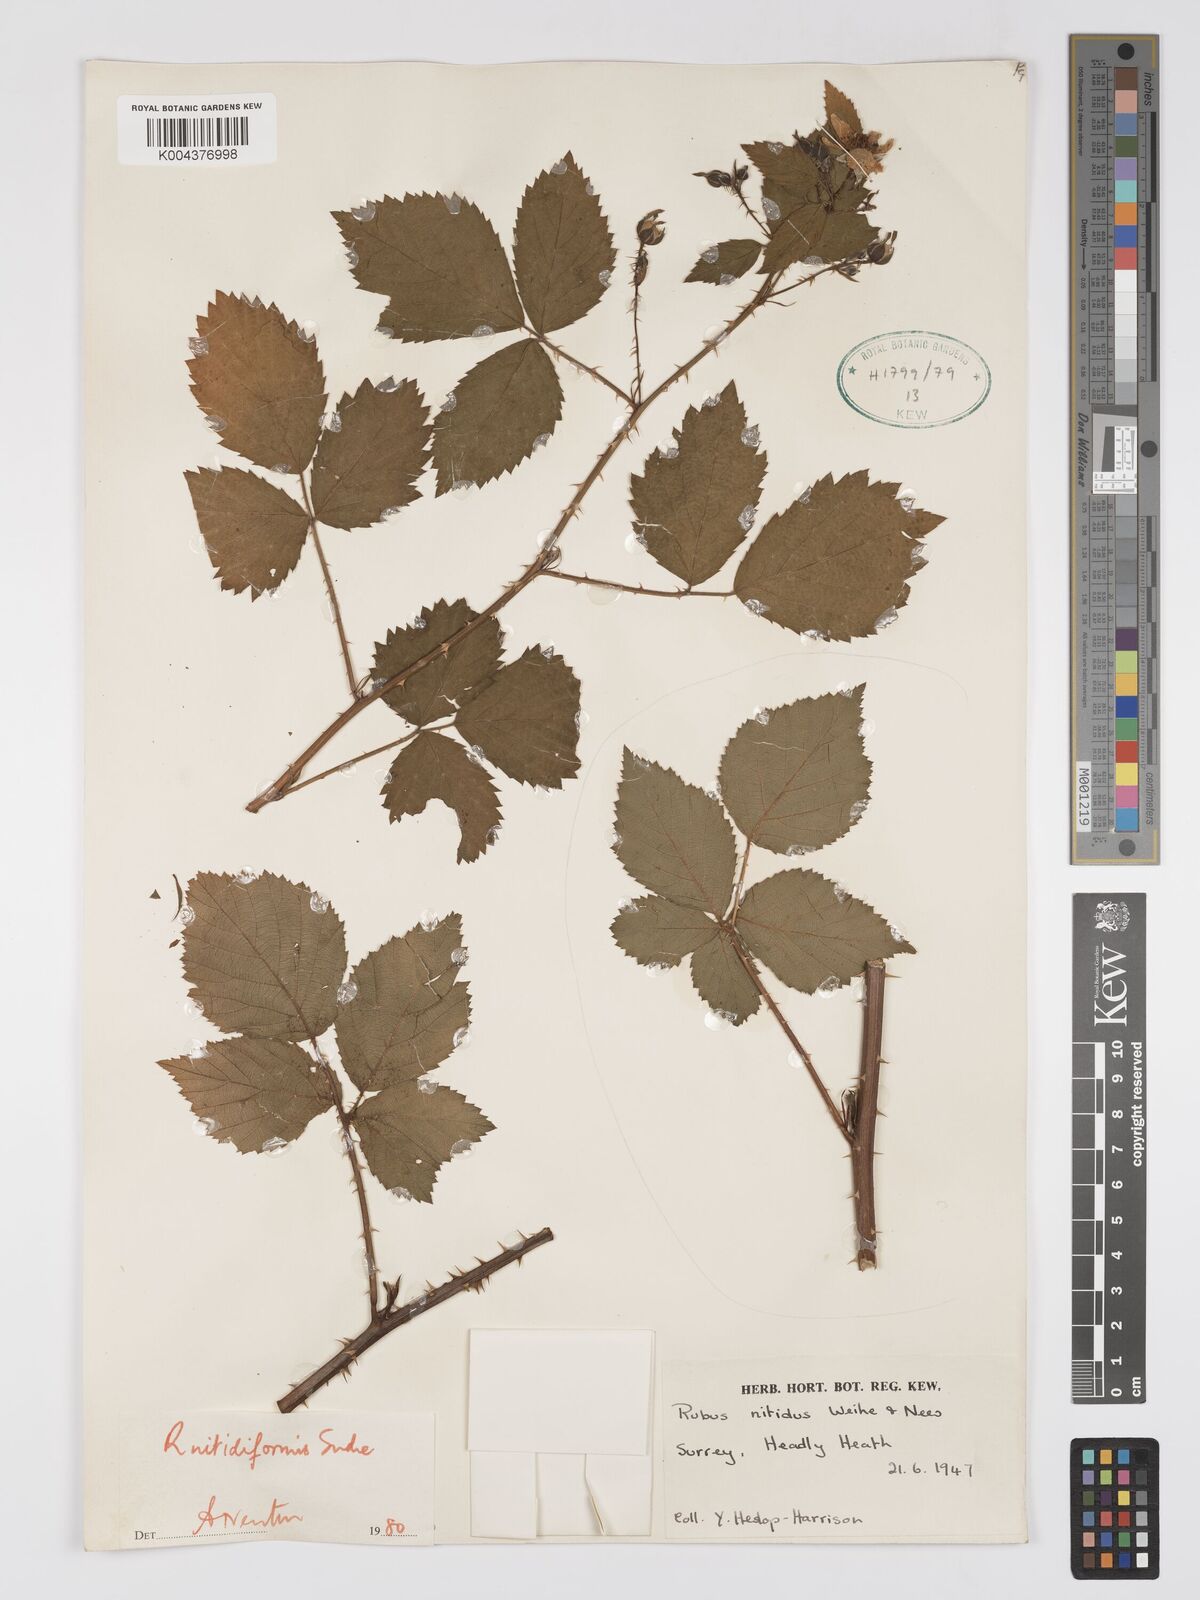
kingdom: Plantae
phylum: Tracheophyta
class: Magnoliopsida
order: Rosales
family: Rosaceae
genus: Rubus
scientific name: Rubus nitidiformis
